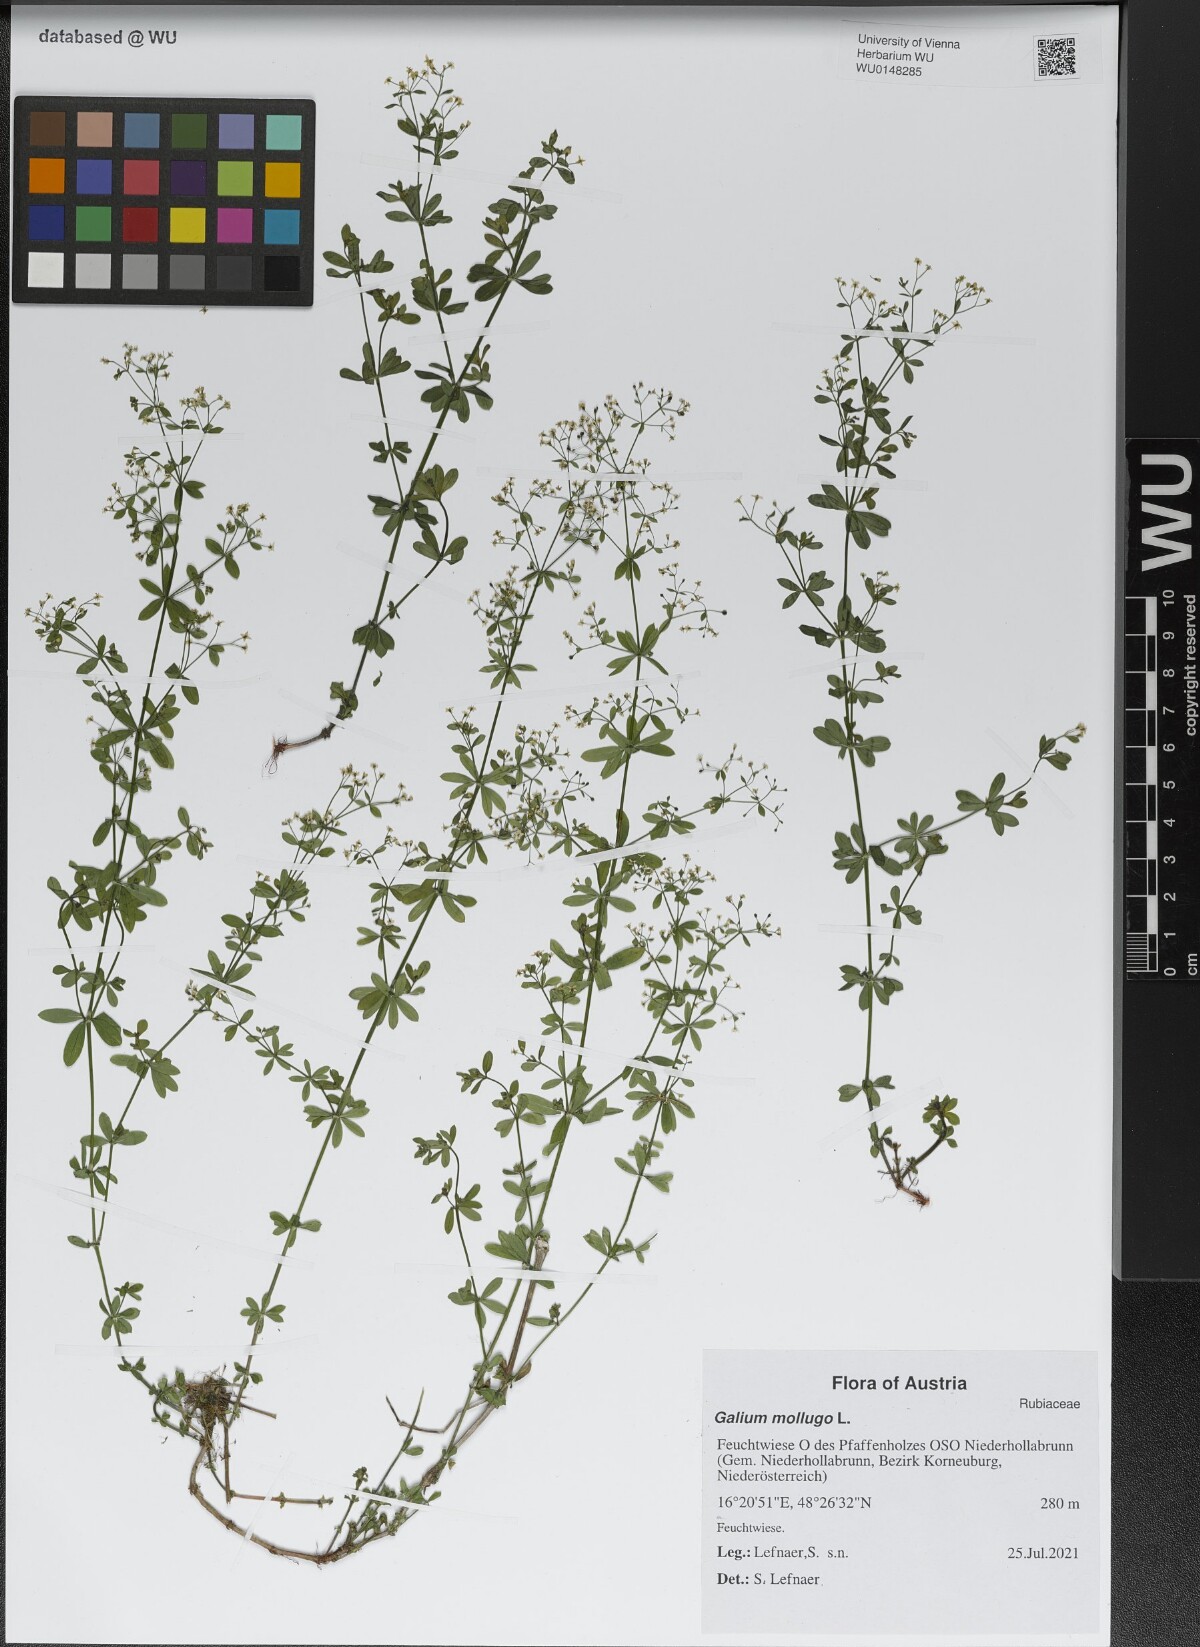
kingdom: Plantae
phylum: Tracheophyta
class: Magnoliopsida
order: Gentianales
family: Rubiaceae
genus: Galium
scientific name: Galium mollugo
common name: Hedge bedstraw
